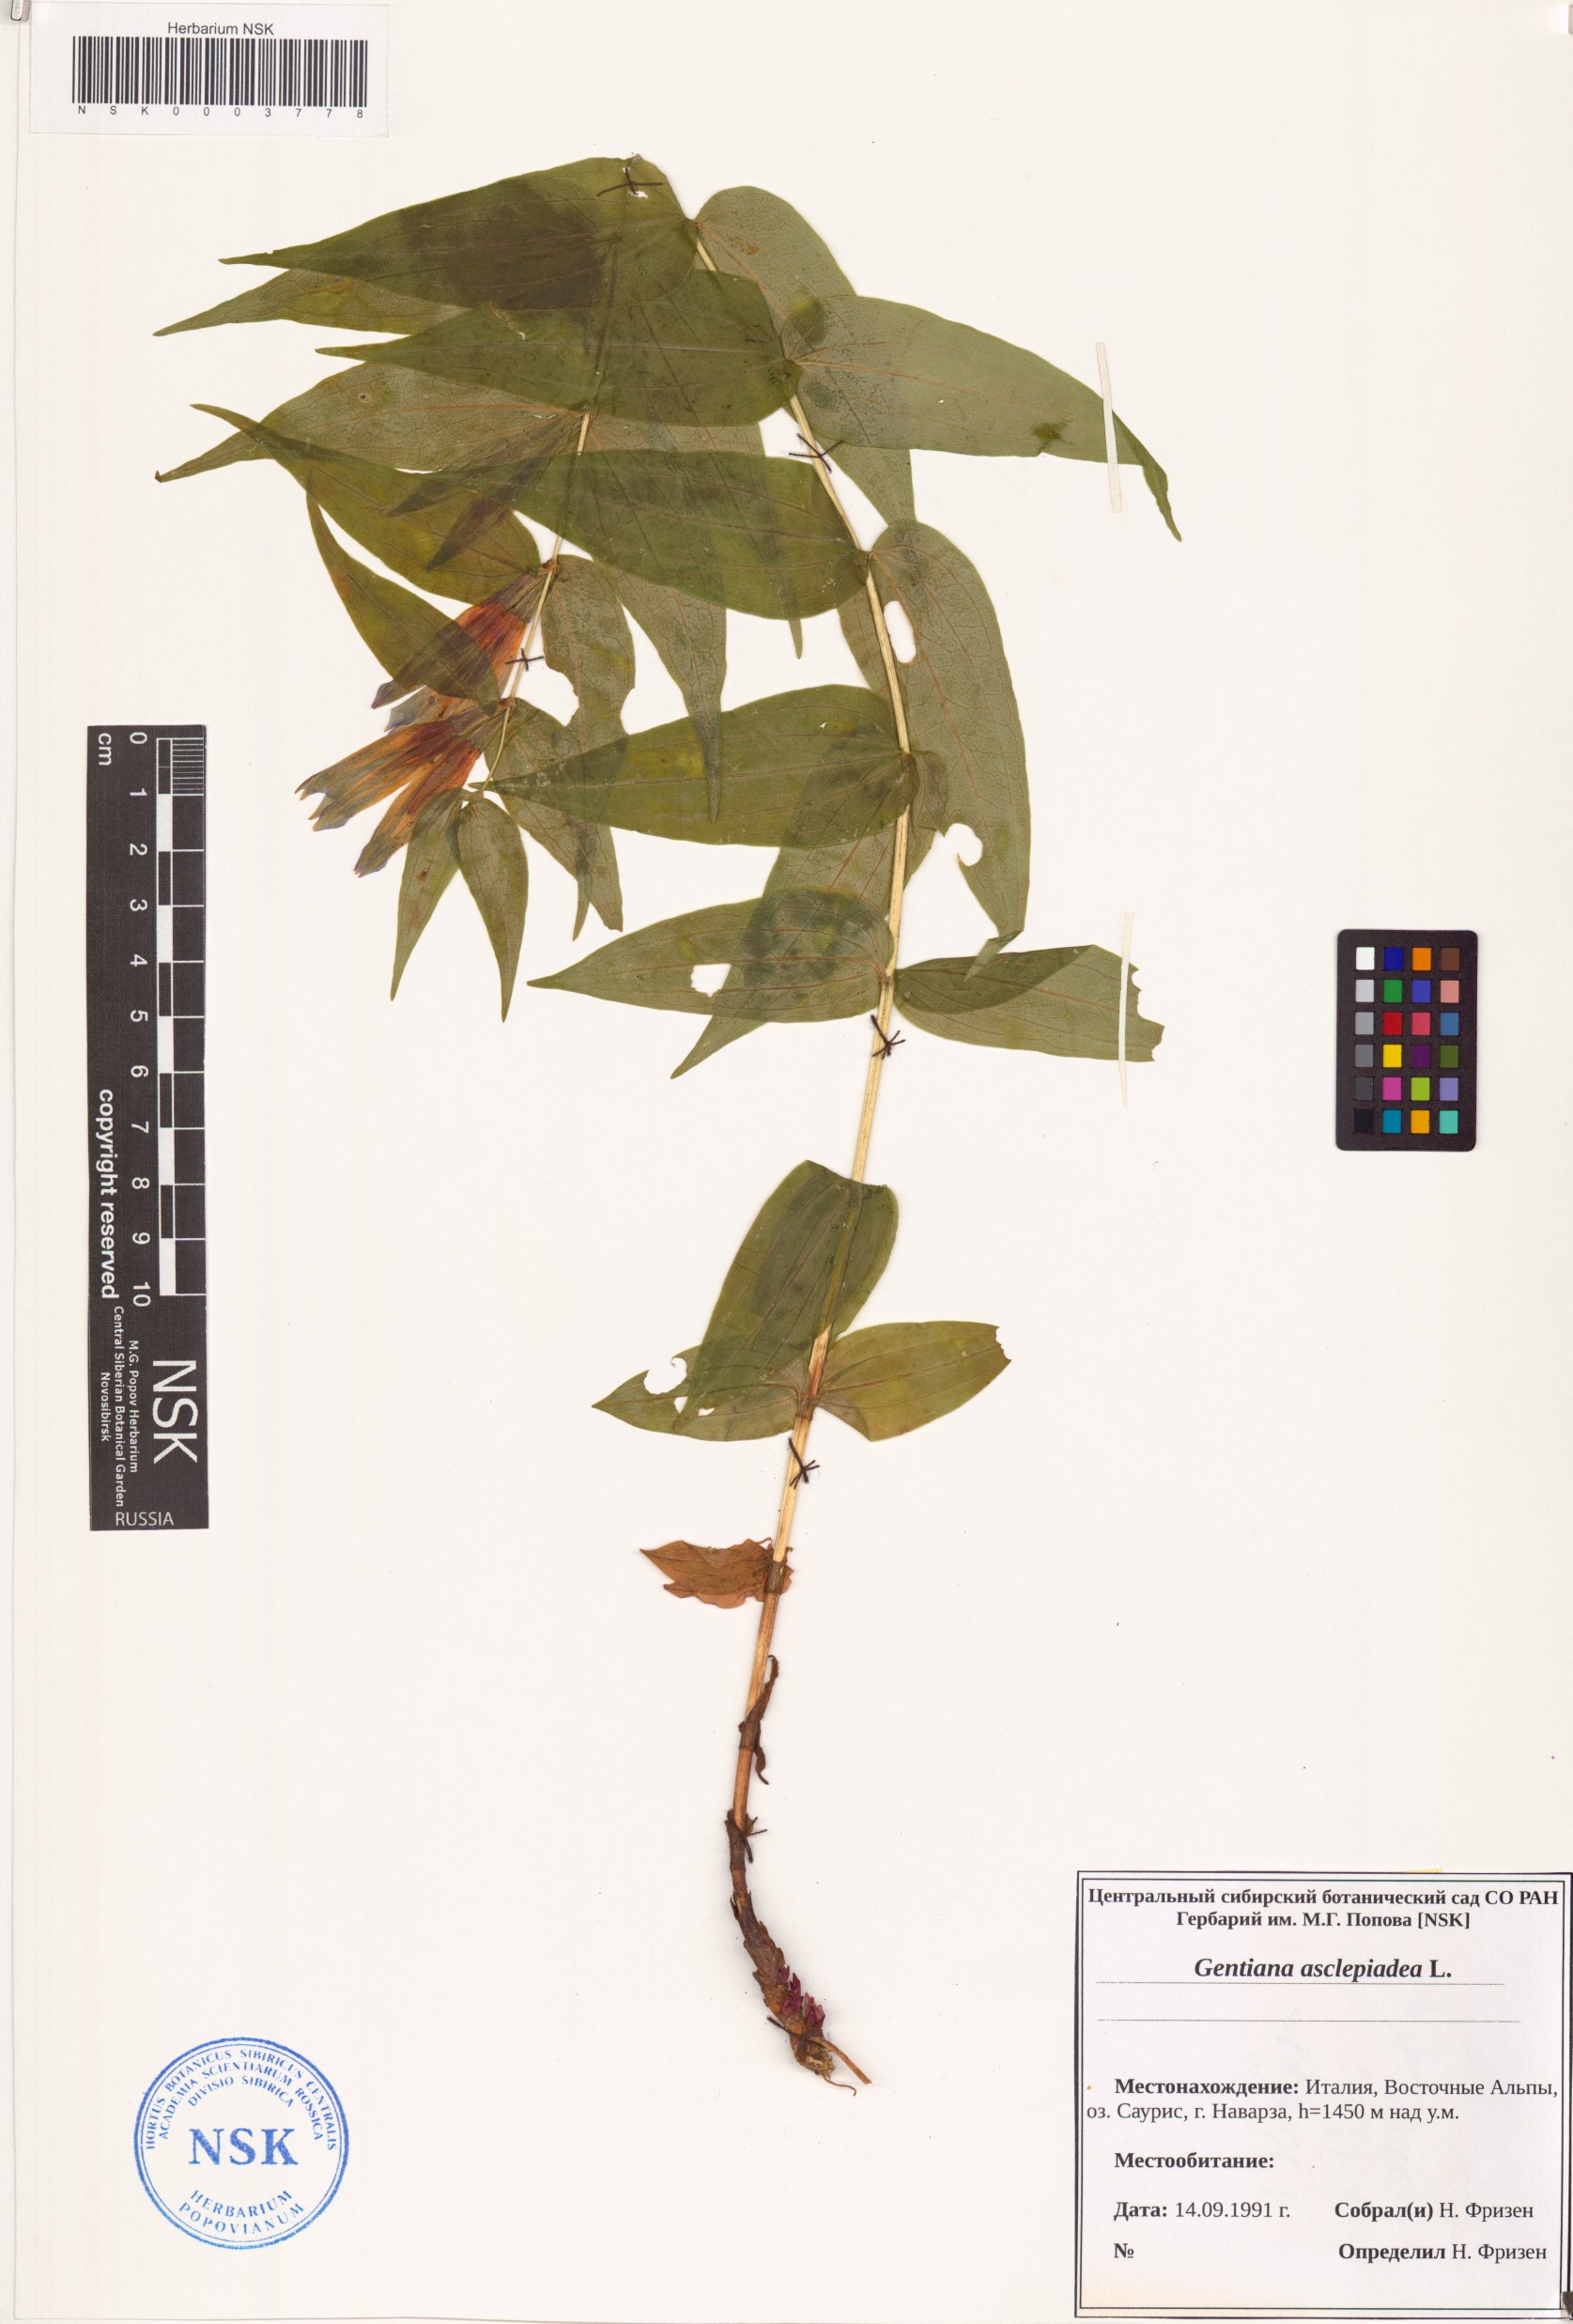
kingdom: Plantae
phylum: Tracheophyta
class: Magnoliopsida
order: Gentianales
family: Gentianaceae
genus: Gentiana
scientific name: Gentiana asclepiadea
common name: Willow gentian
